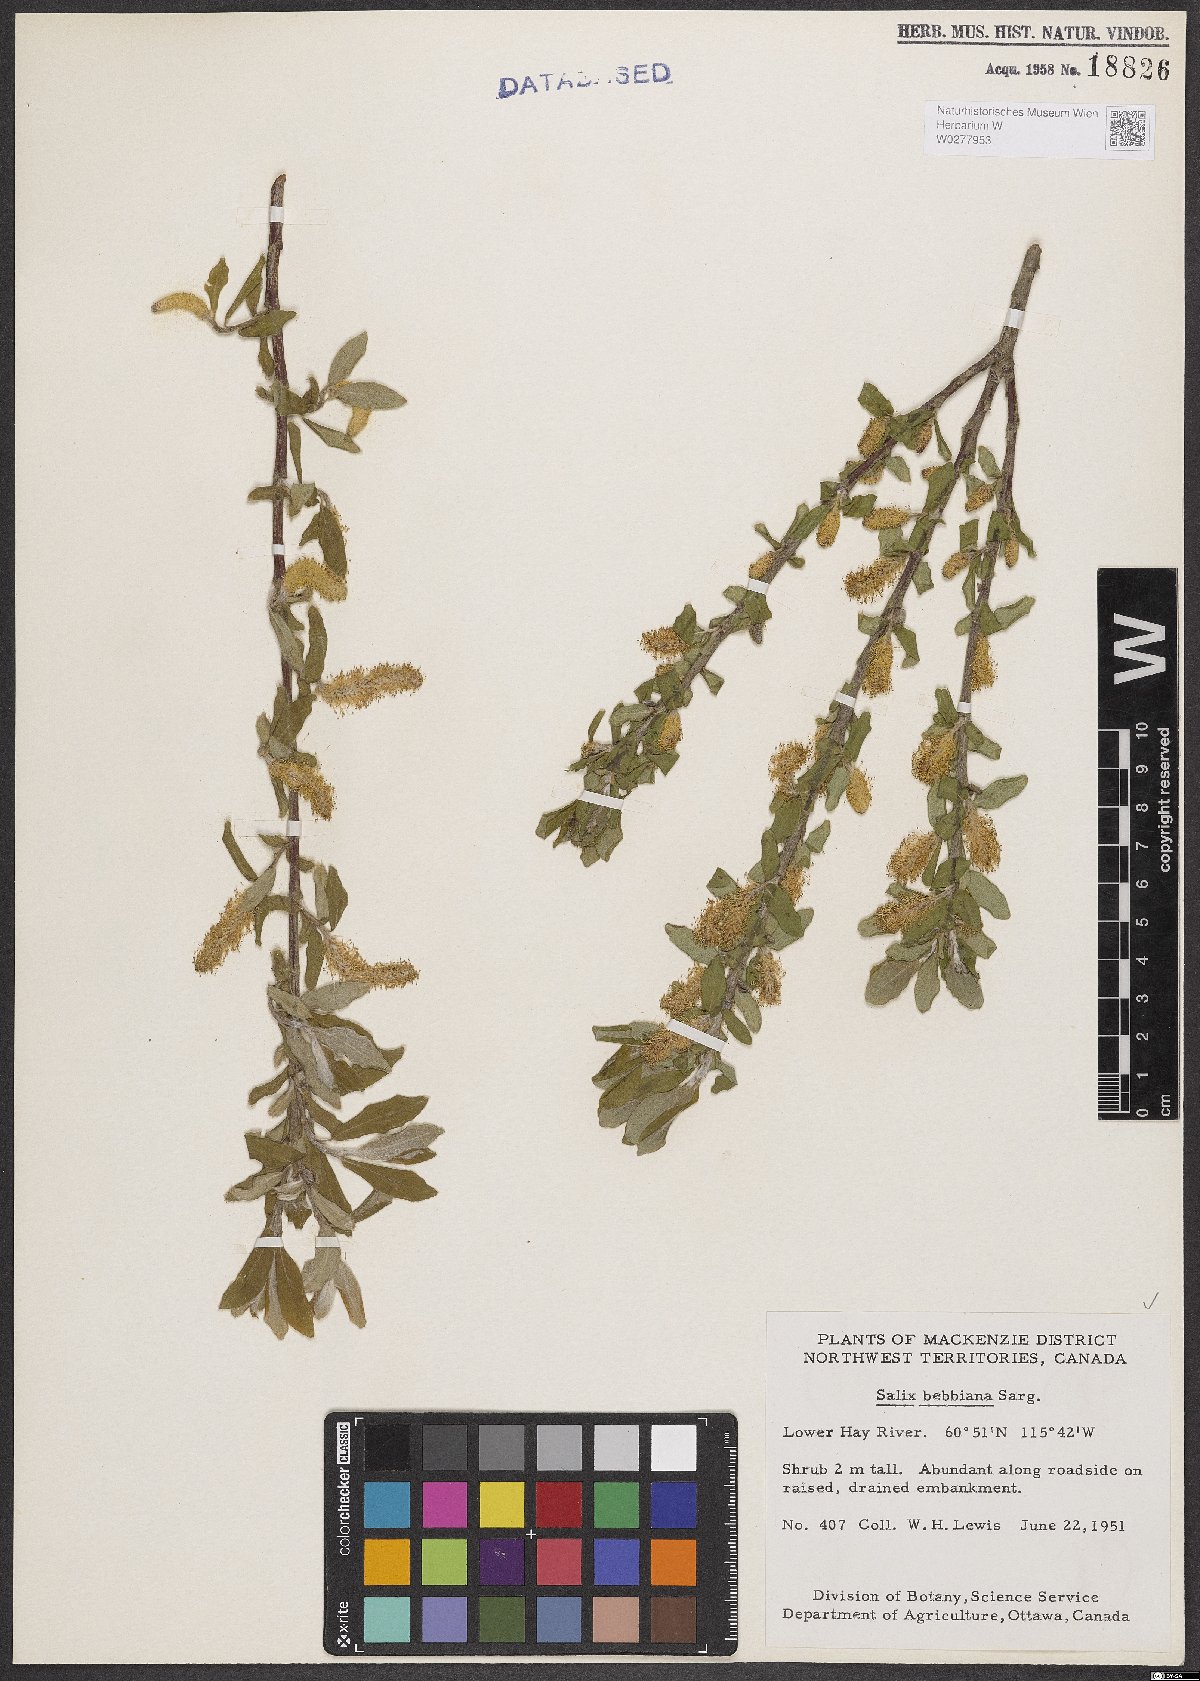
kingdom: Plantae
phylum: Tracheophyta
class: Magnoliopsida
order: Malpighiales
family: Salicaceae
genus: Salix
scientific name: Salix bebbiana
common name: Bebb's willow
